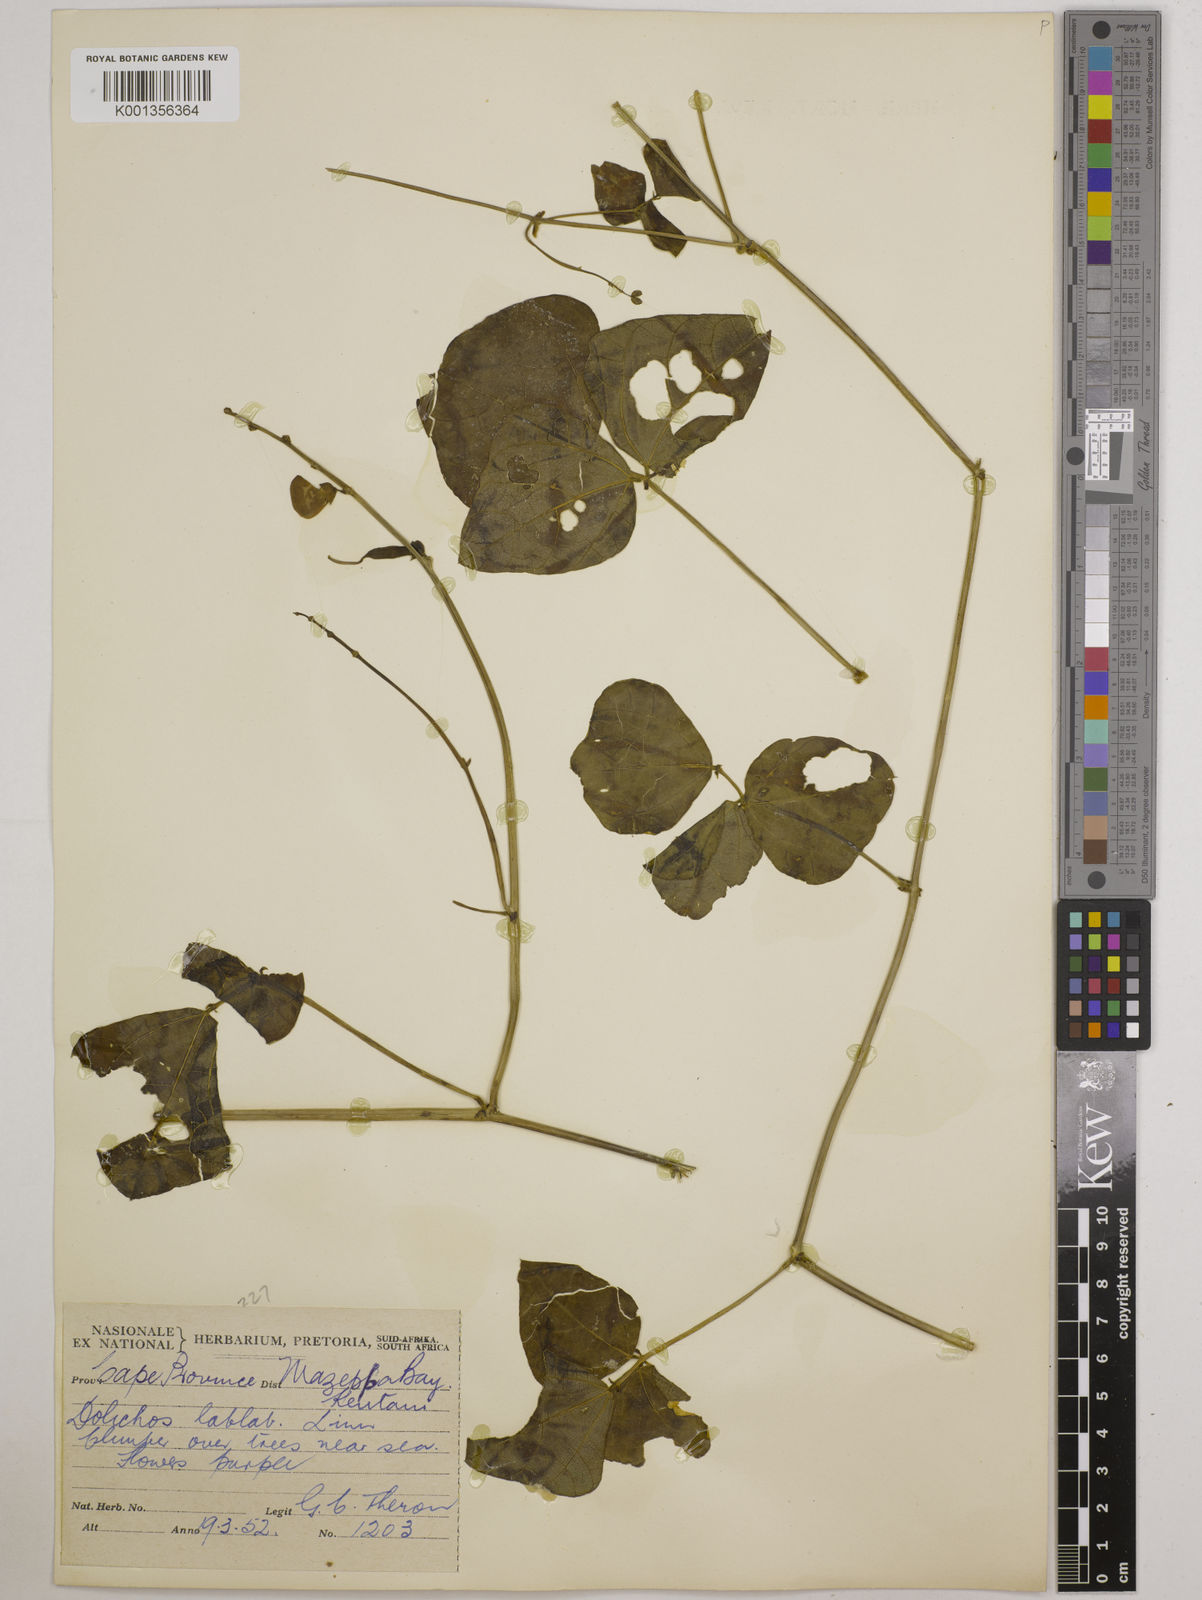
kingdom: Plantae
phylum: Tracheophyta
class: Magnoliopsida
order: Fabales
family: Fabaceae
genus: Lablab
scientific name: Lablab purpureus
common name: Lablab-bean
